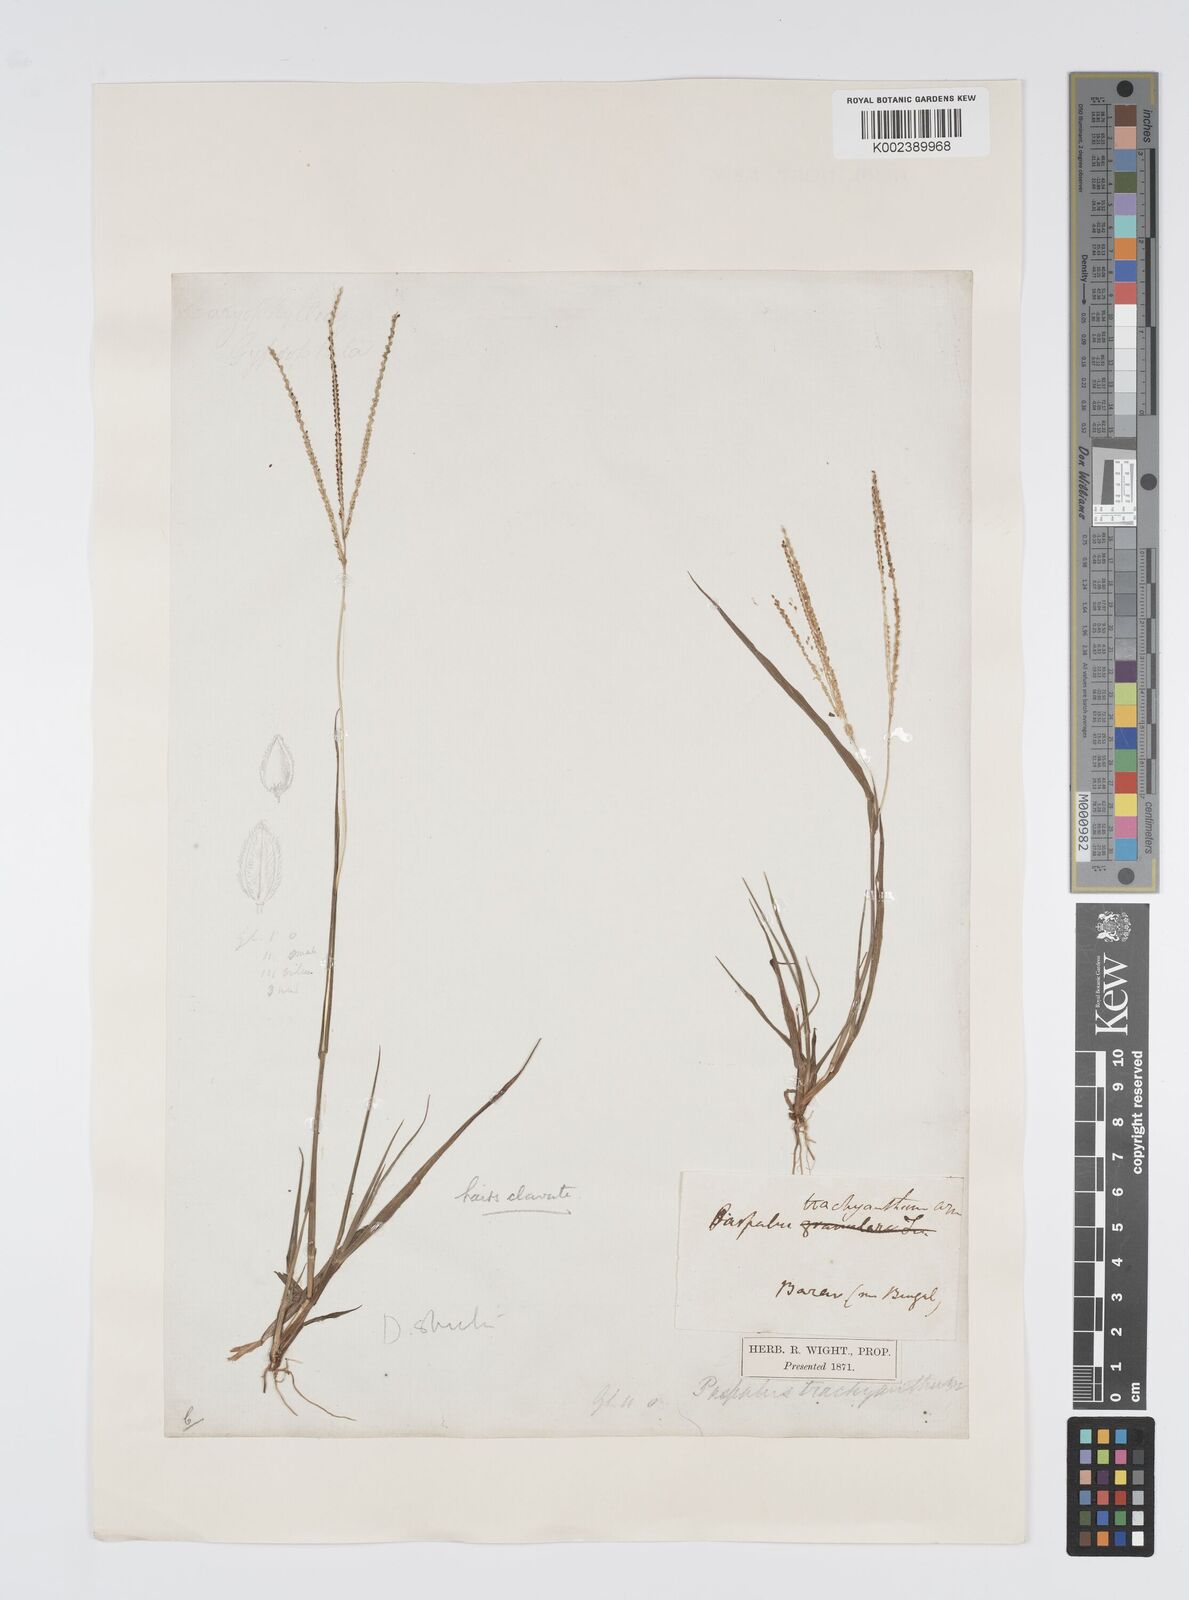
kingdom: Plantae
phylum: Tracheophyta
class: Liliopsida
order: Poales
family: Poaceae
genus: Digitaria
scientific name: Digitaria stricta
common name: Crabgrass
